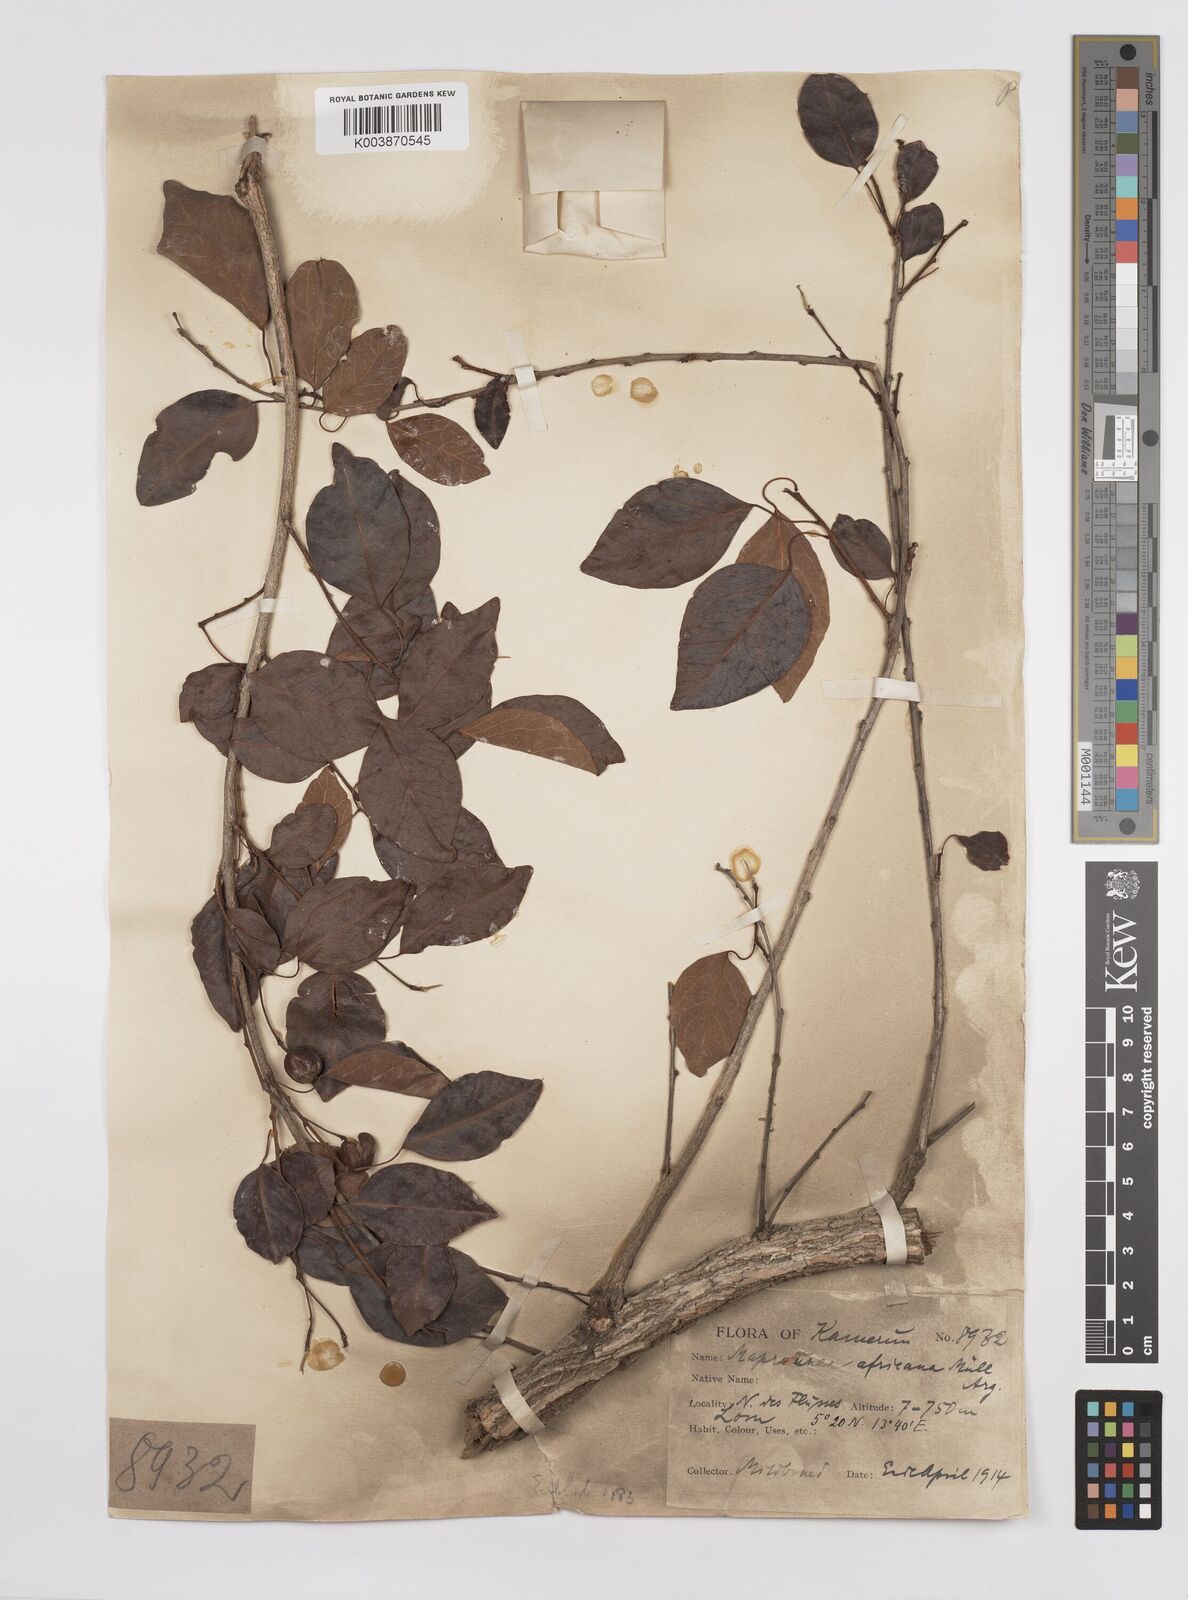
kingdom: Plantae
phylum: Tracheophyta
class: Magnoliopsida
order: Malpighiales
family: Euphorbiaceae
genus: Maprounea
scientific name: Maprounea africana
